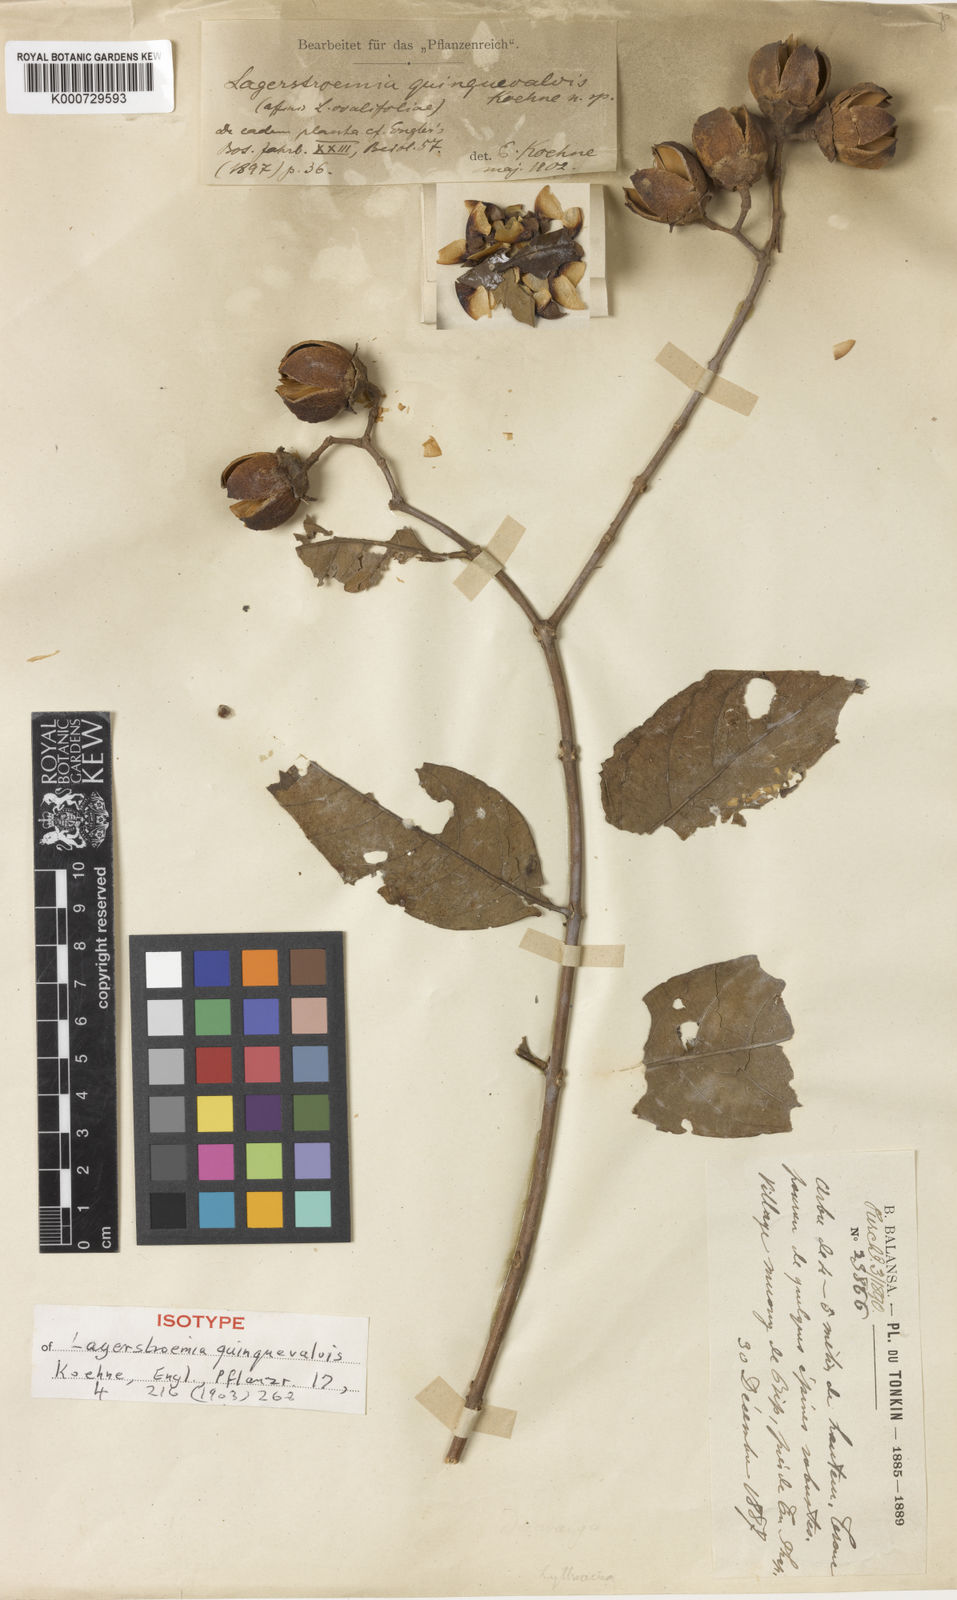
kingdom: Plantae
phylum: Tracheophyta
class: Magnoliopsida
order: Myrtales
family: Lythraceae
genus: Lagerstroemia
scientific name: Lagerstroemia
